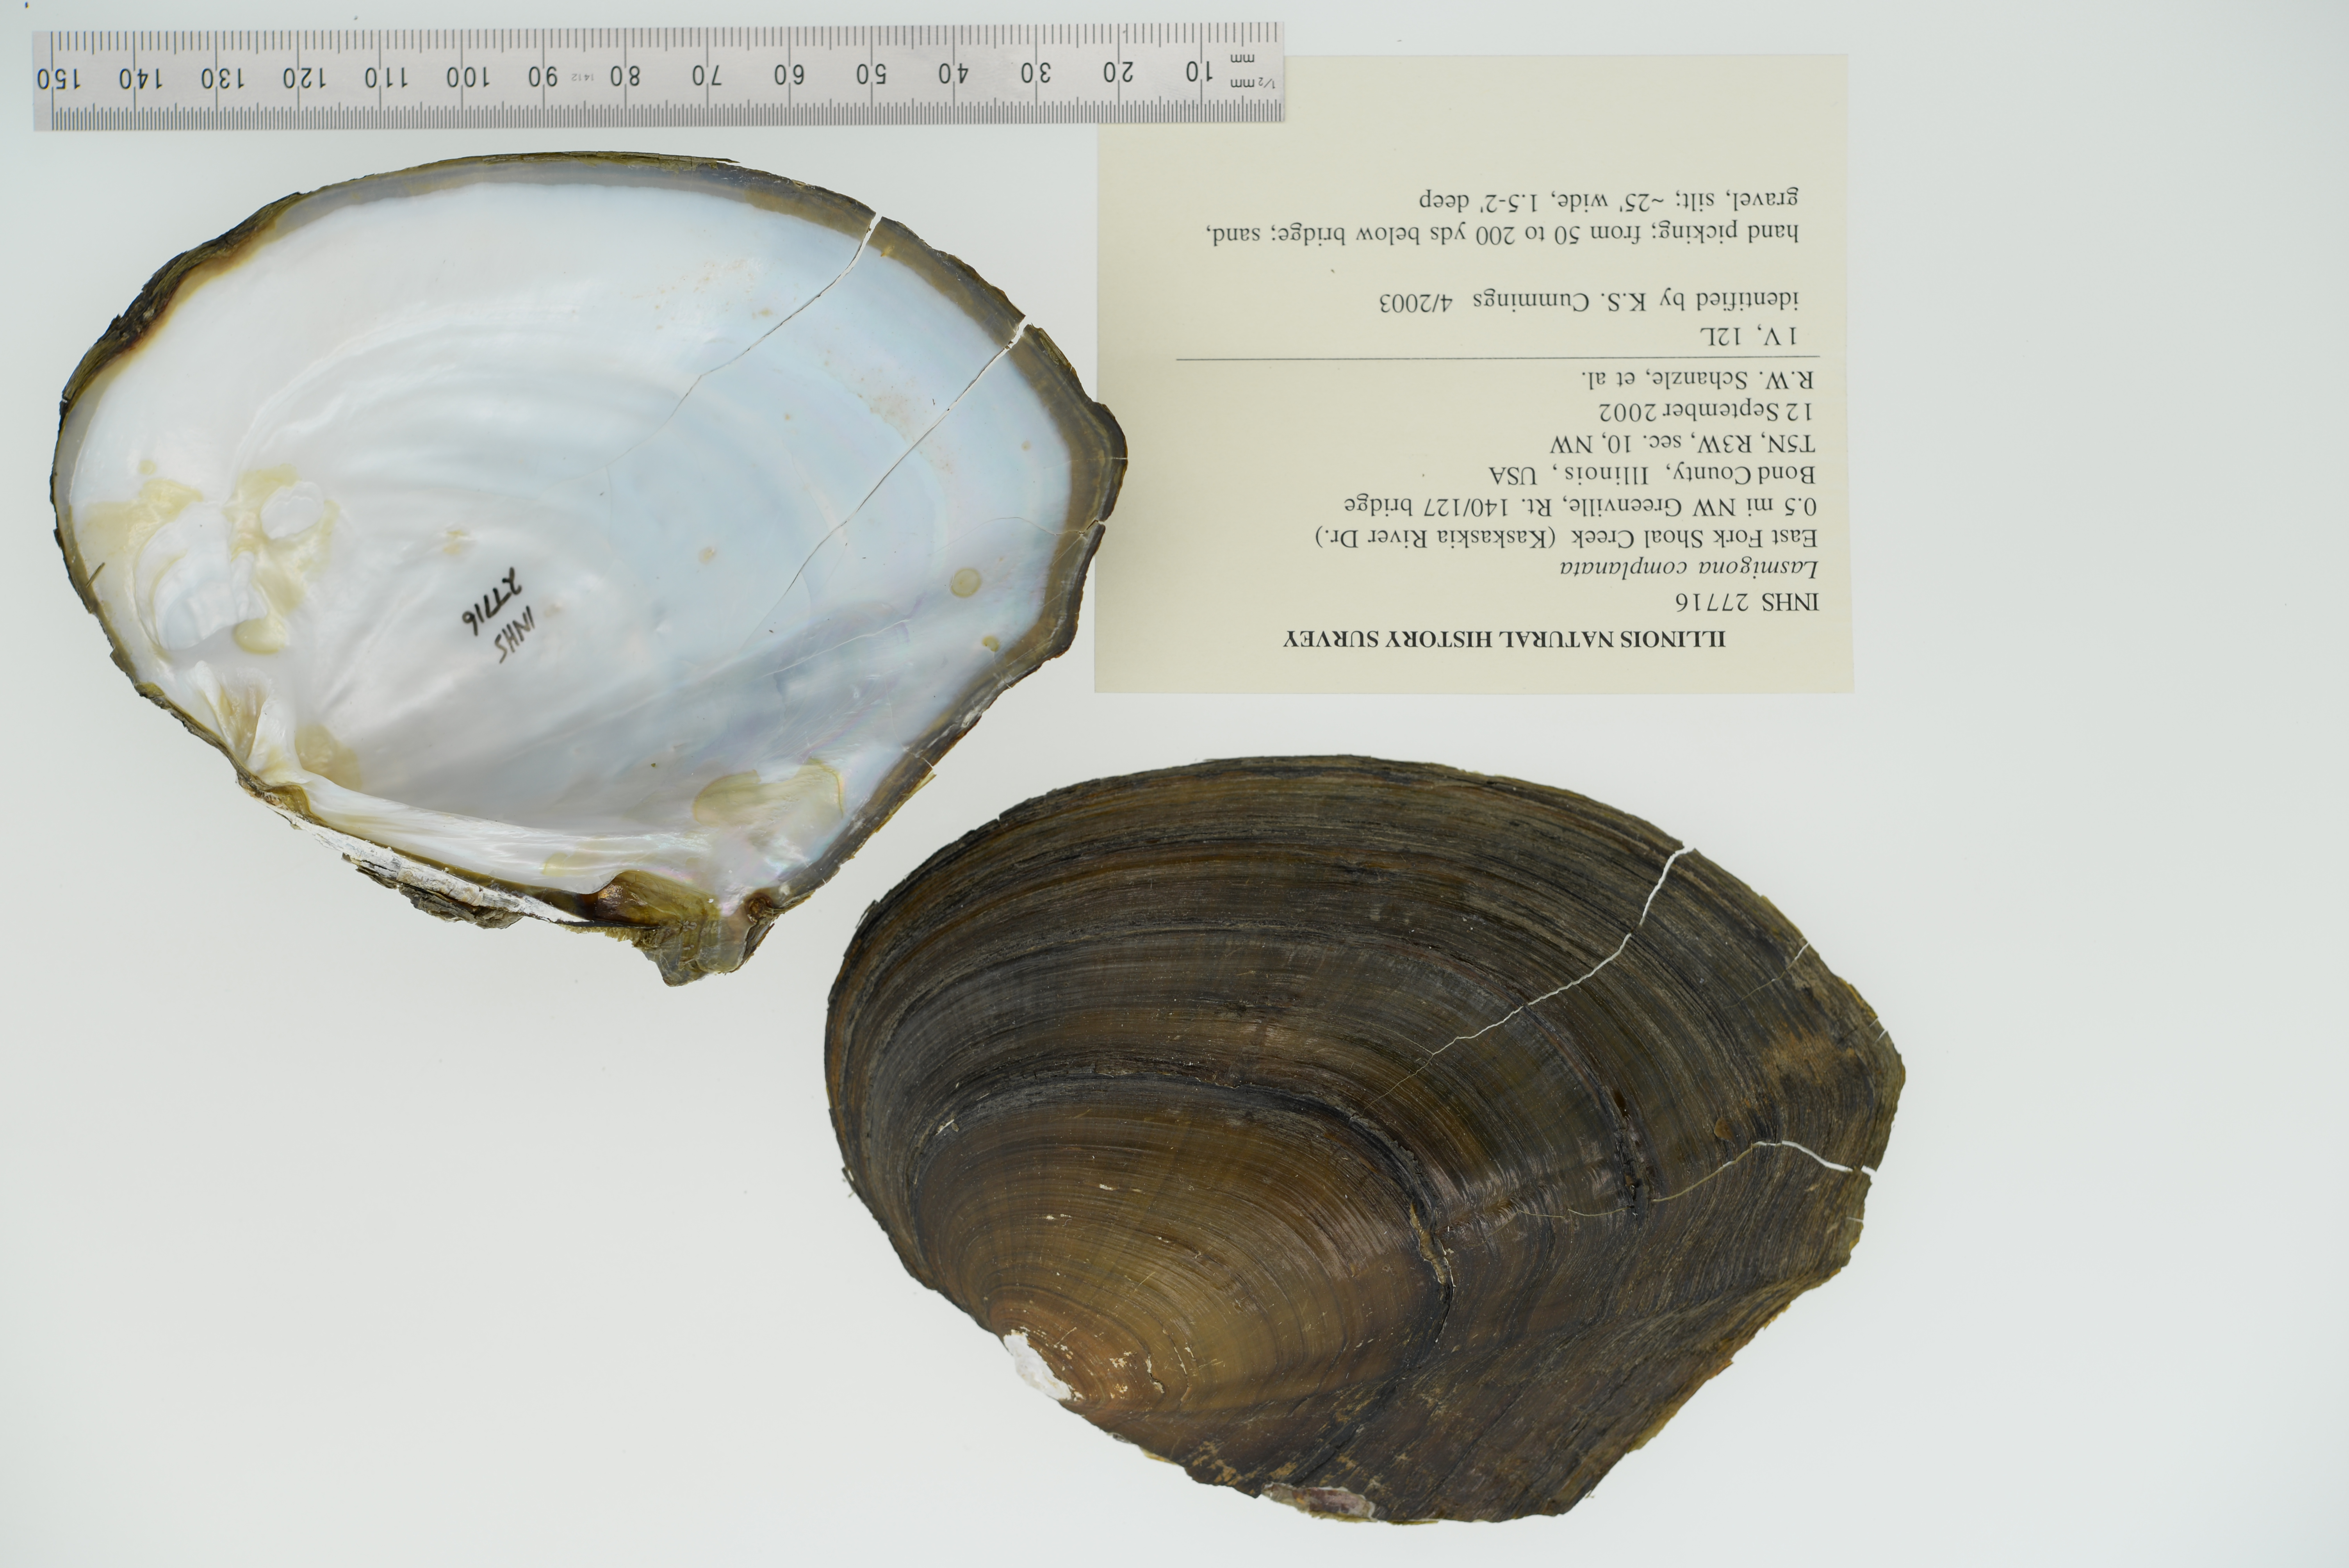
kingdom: Animalia
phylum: Mollusca
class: Bivalvia
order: Unionida
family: Unionidae
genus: Lasmigona
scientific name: Lasmigona complanata
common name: White heelsplitter
